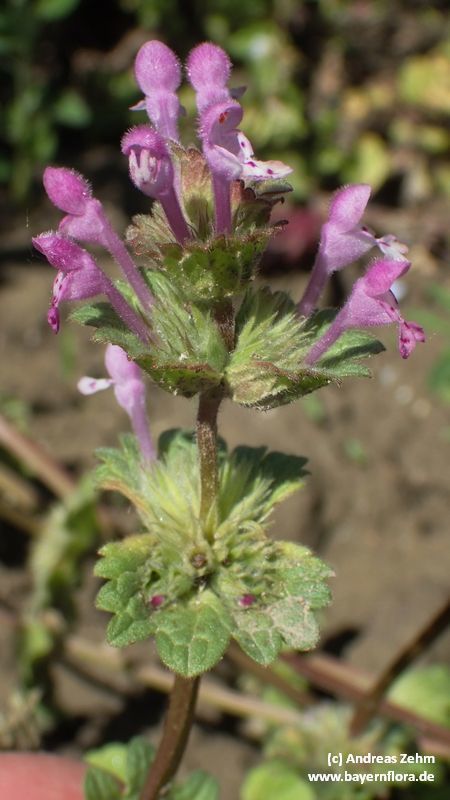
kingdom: Plantae
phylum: Tracheophyta
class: Magnoliopsida
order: Lamiales
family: Lamiaceae
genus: Lamium
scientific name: Lamium amplexicaule
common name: Henbit dead-nettle
